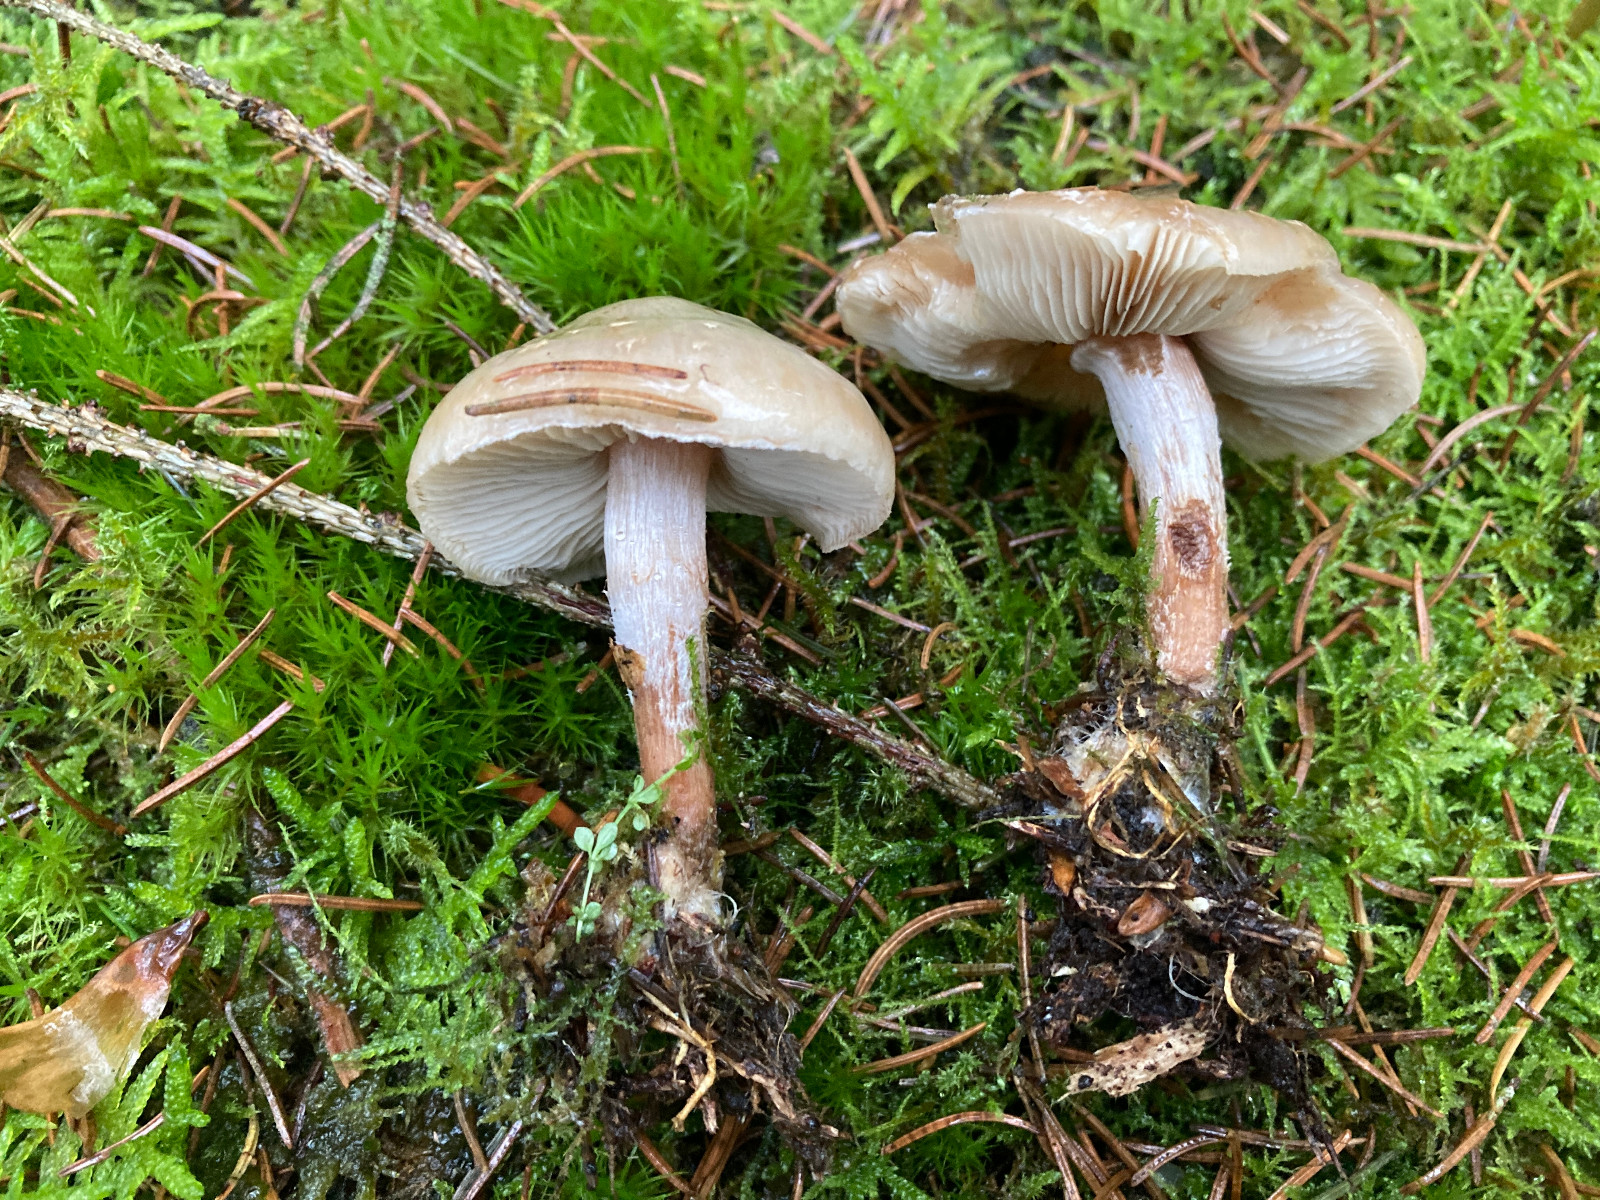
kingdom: Fungi
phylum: Basidiomycota
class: Agaricomycetes
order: Agaricales
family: Strophariaceae
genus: Pholiota
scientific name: Pholiota lenta
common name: løv-skælhat
